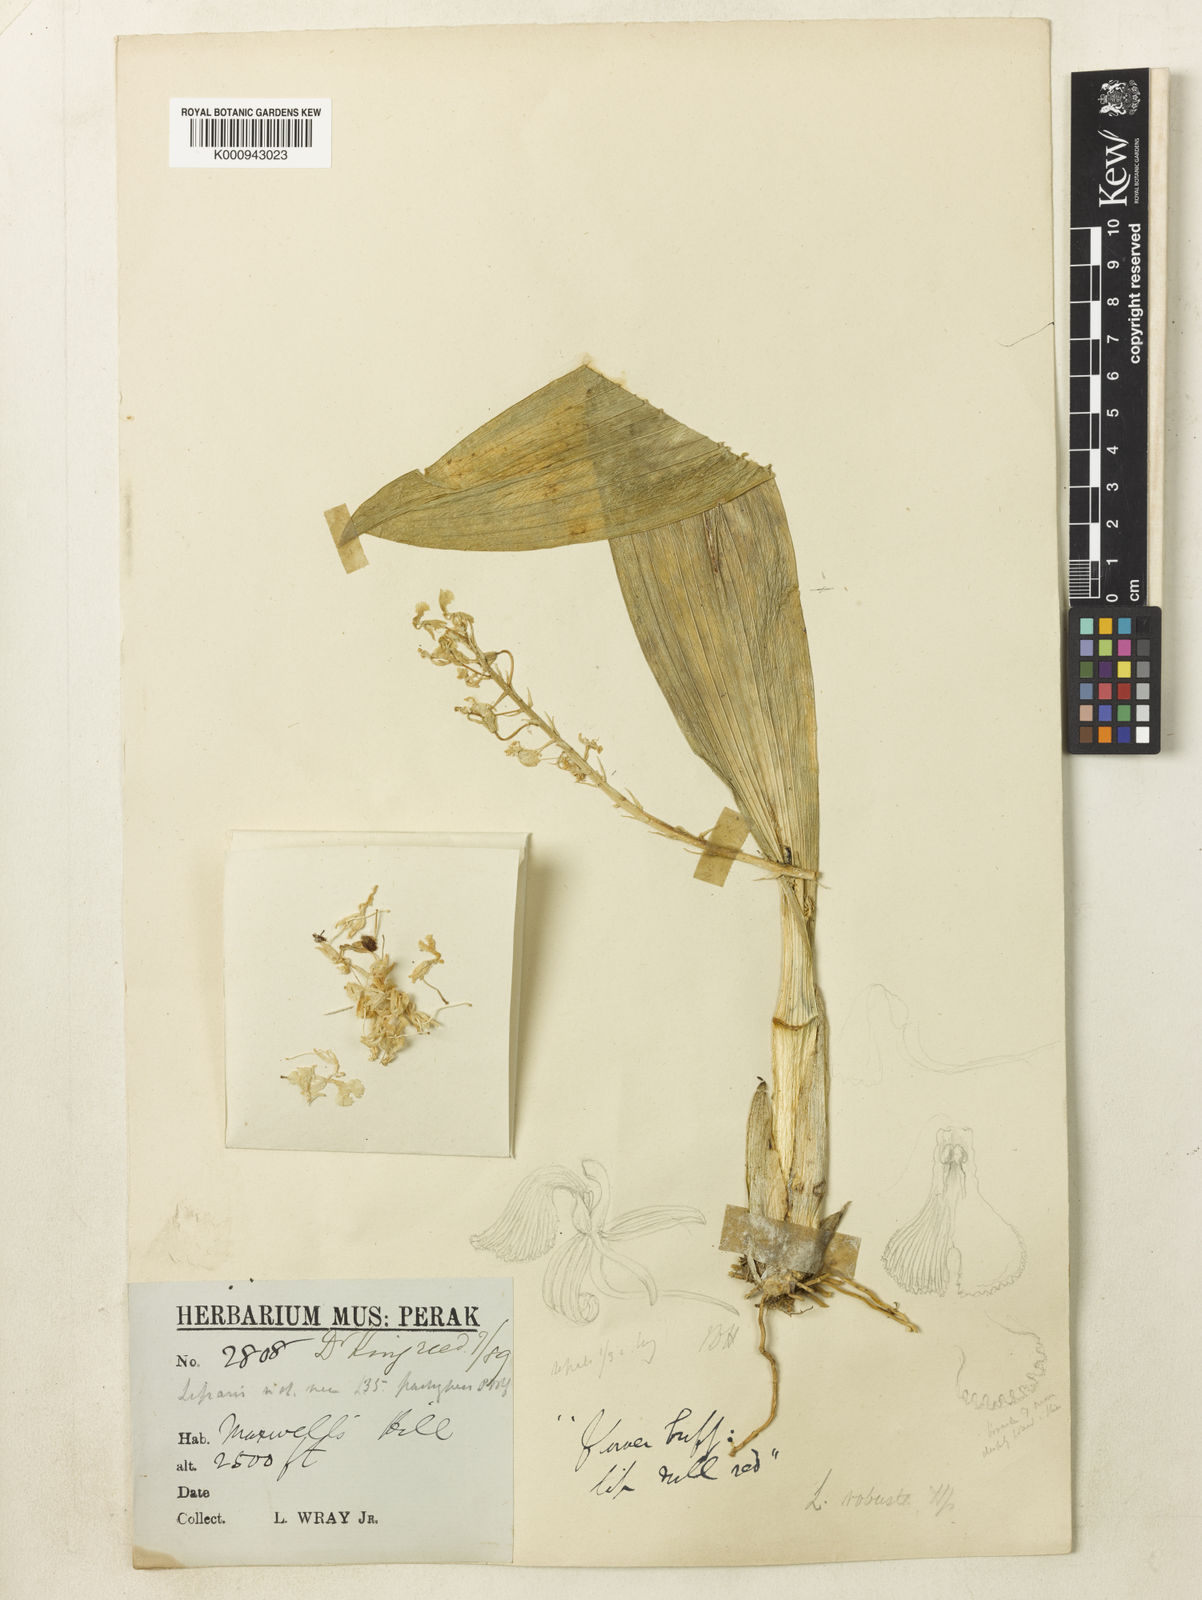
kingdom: Plantae
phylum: Tracheophyta
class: Liliopsida
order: Asparagales
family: Orchidaceae
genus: Liparis
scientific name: Liparis latifolia
